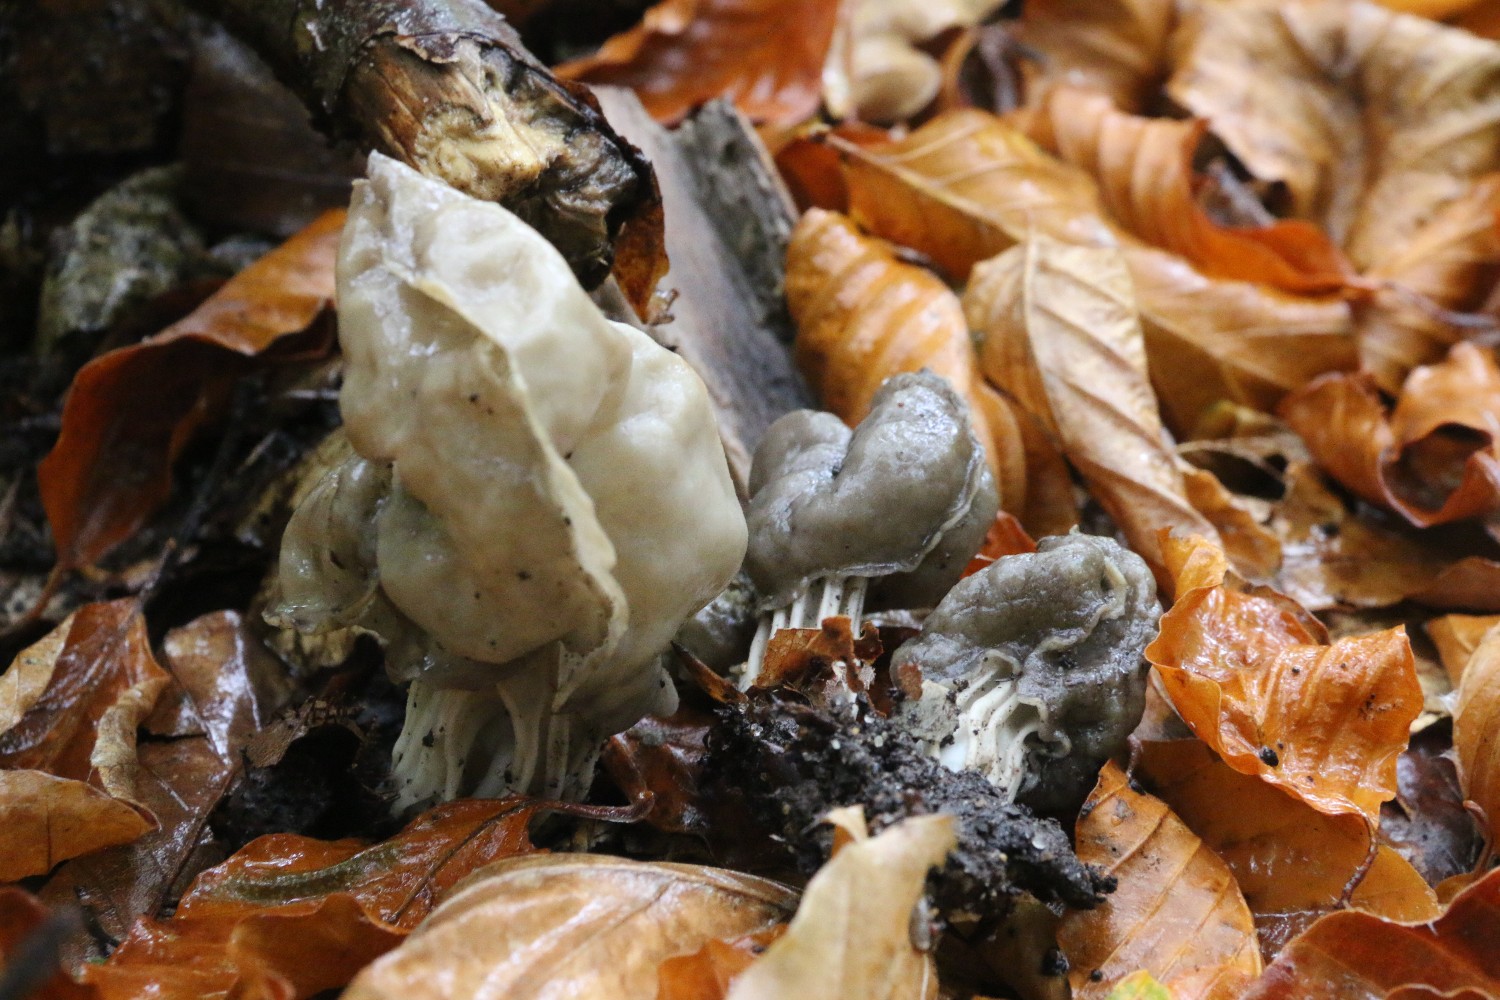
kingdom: Fungi
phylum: Ascomycota
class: Pezizomycetes
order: Pezizales
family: Helvellaceae
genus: Helvella
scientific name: Helvella lacunosa
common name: grubet foldhat
